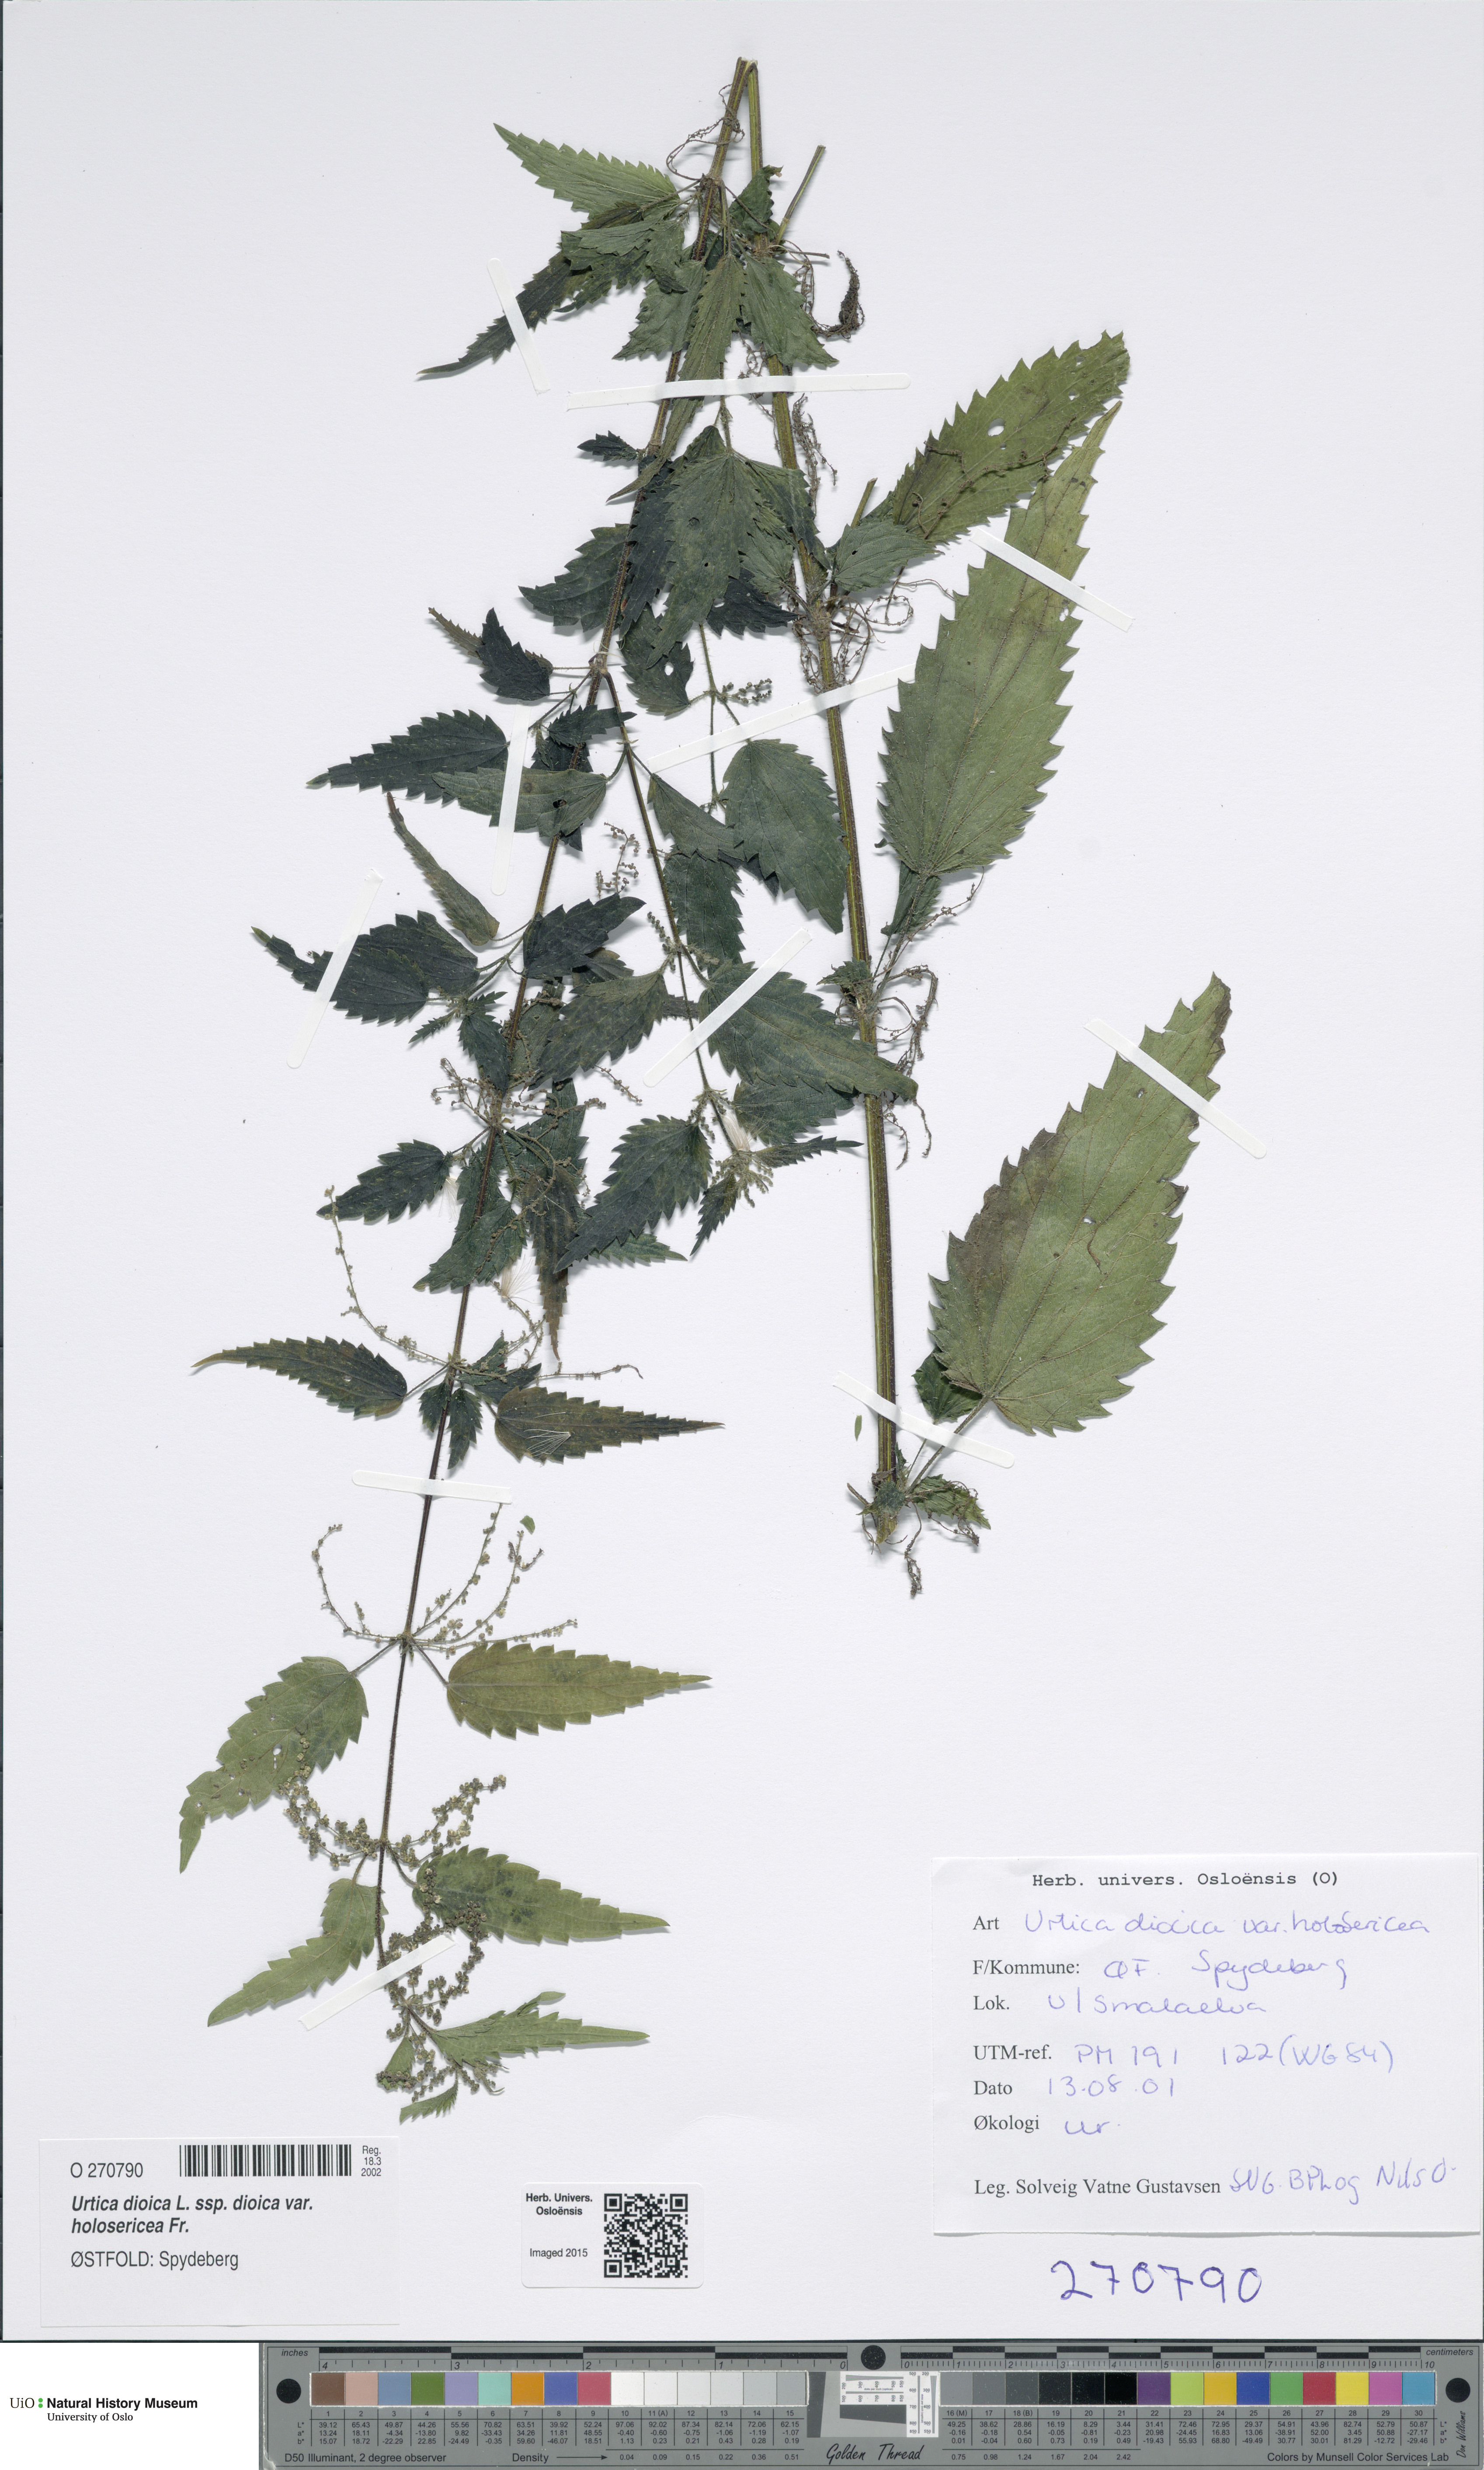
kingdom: Plantae
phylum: Tracheophyta
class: Magnoliopsida
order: Rosales
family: Urticaceae
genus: Urtica
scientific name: Urtica dioica
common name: Common nettle
